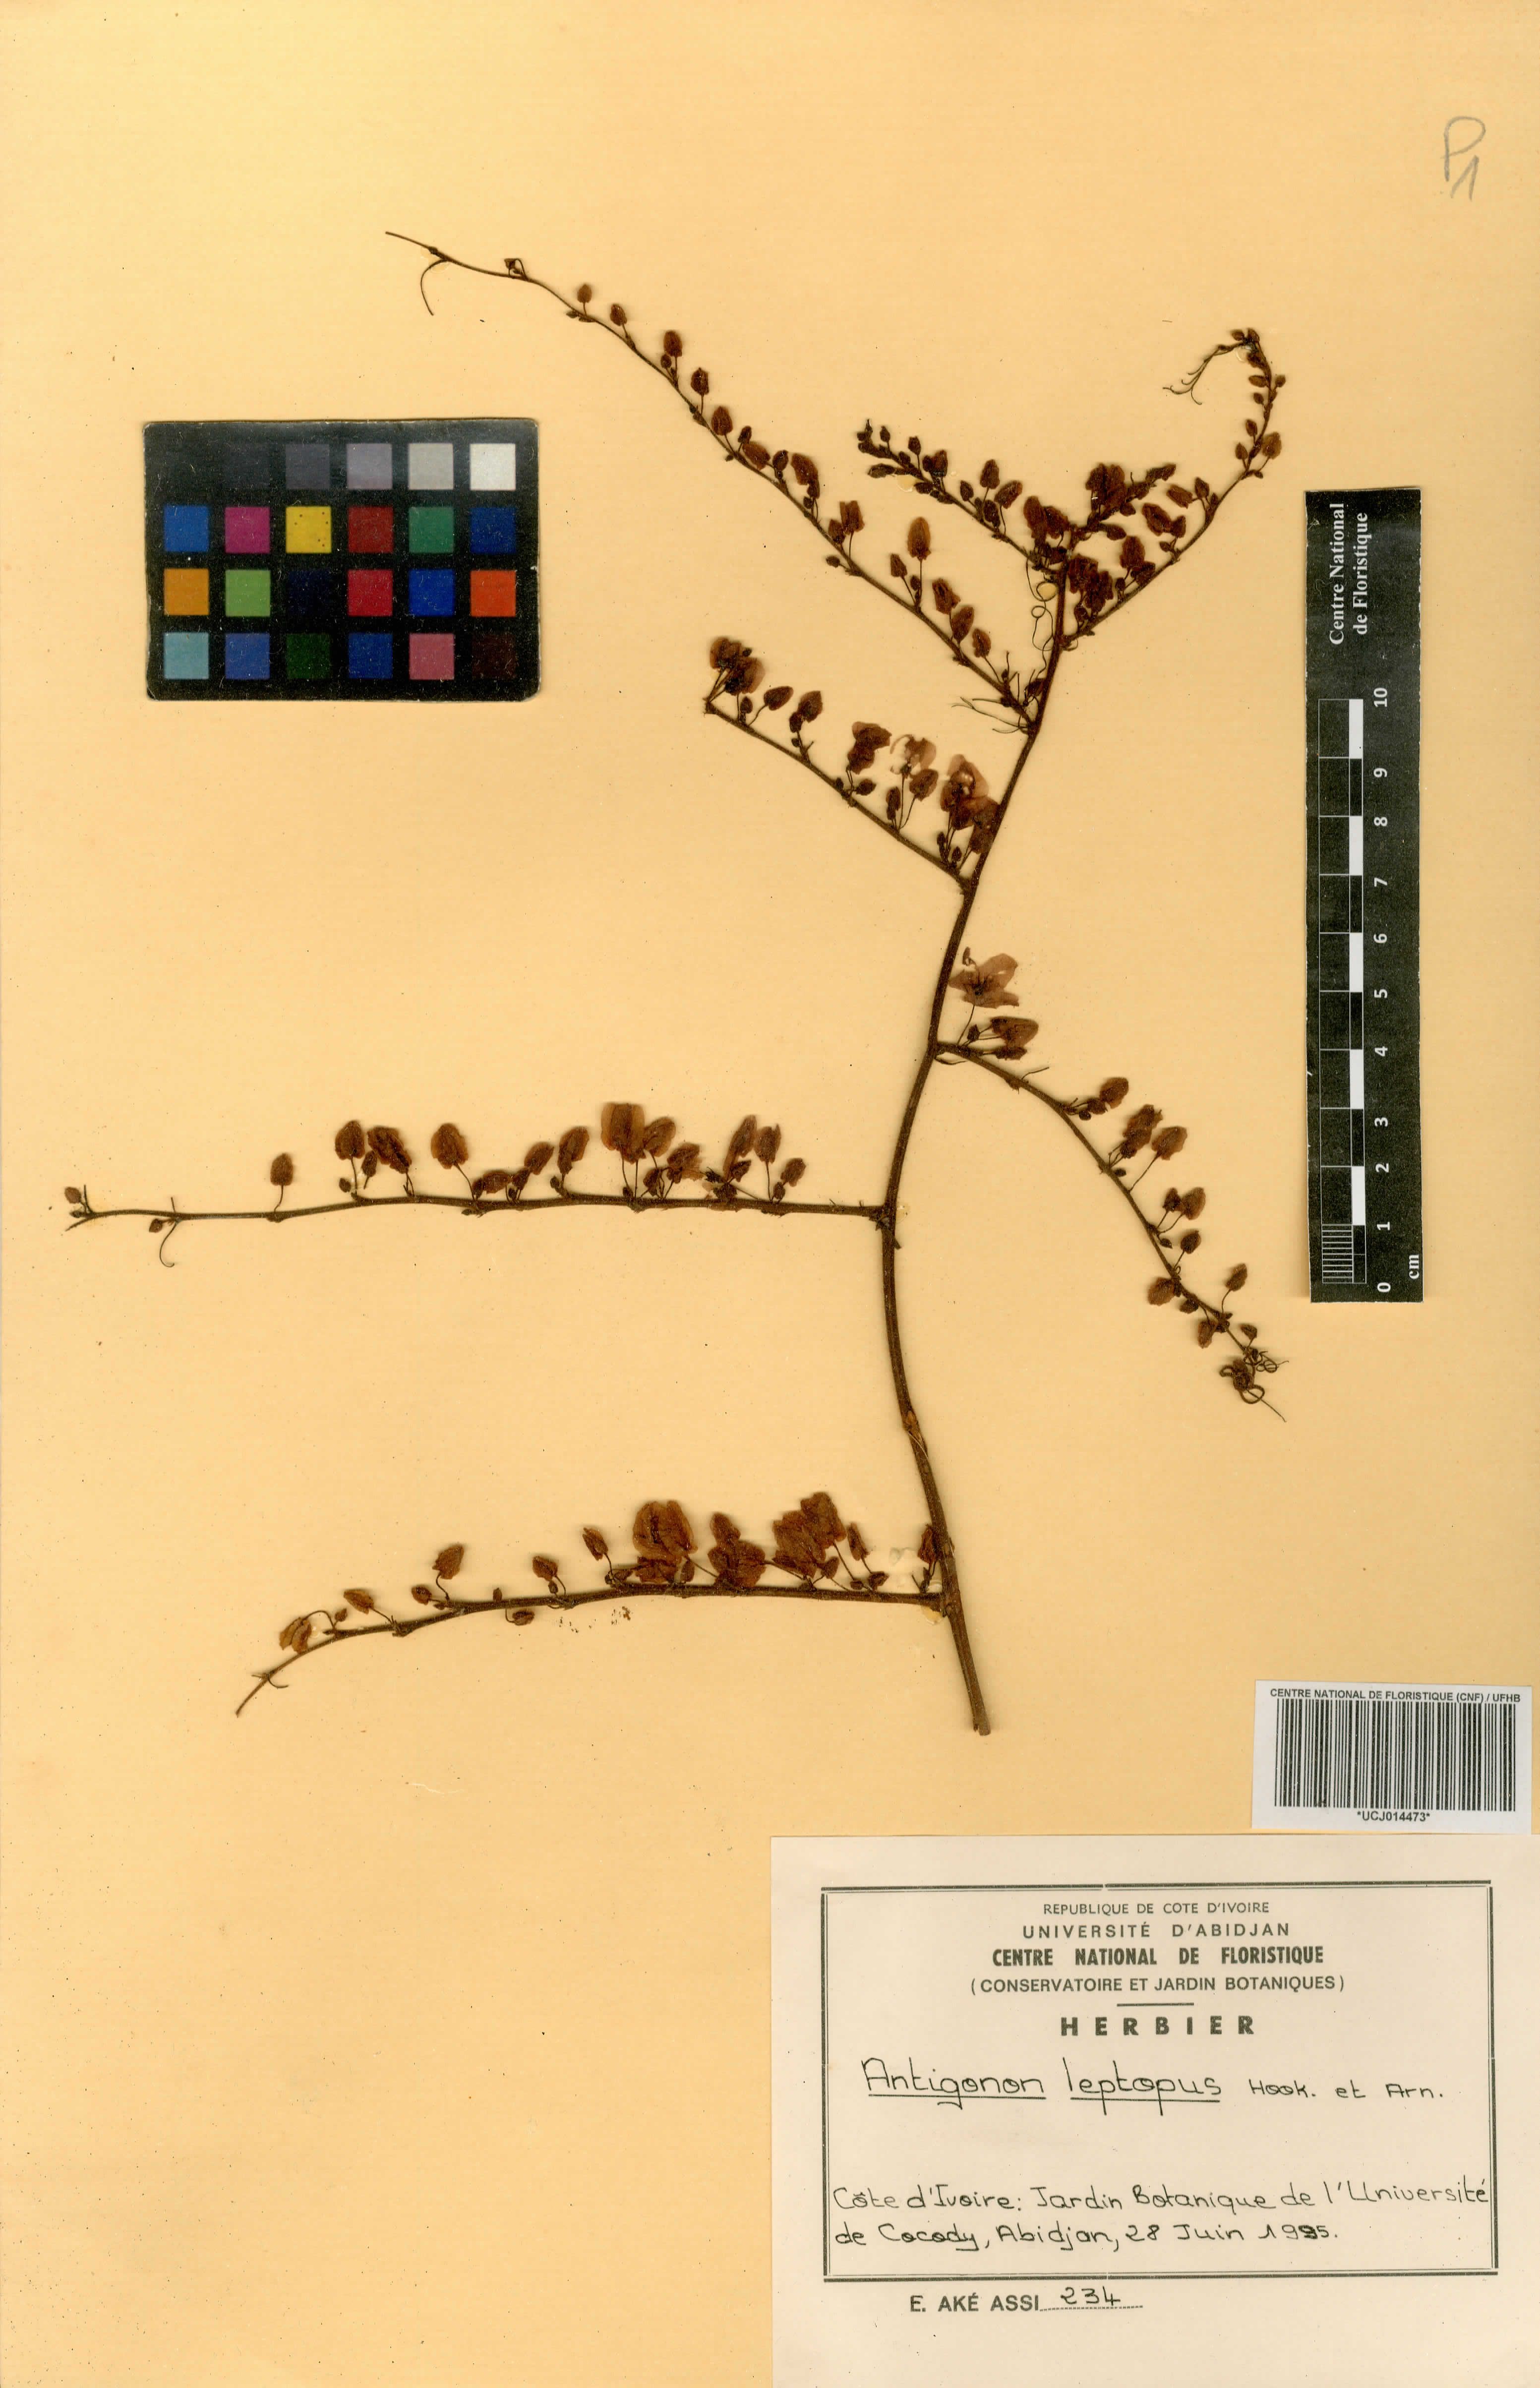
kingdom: Plantae
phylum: Tracheophyta
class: Magnoliopsida
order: Caryophyllales
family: Polygonaceae
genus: Antigonon
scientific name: Antigonon leptopus
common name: Coral vine
